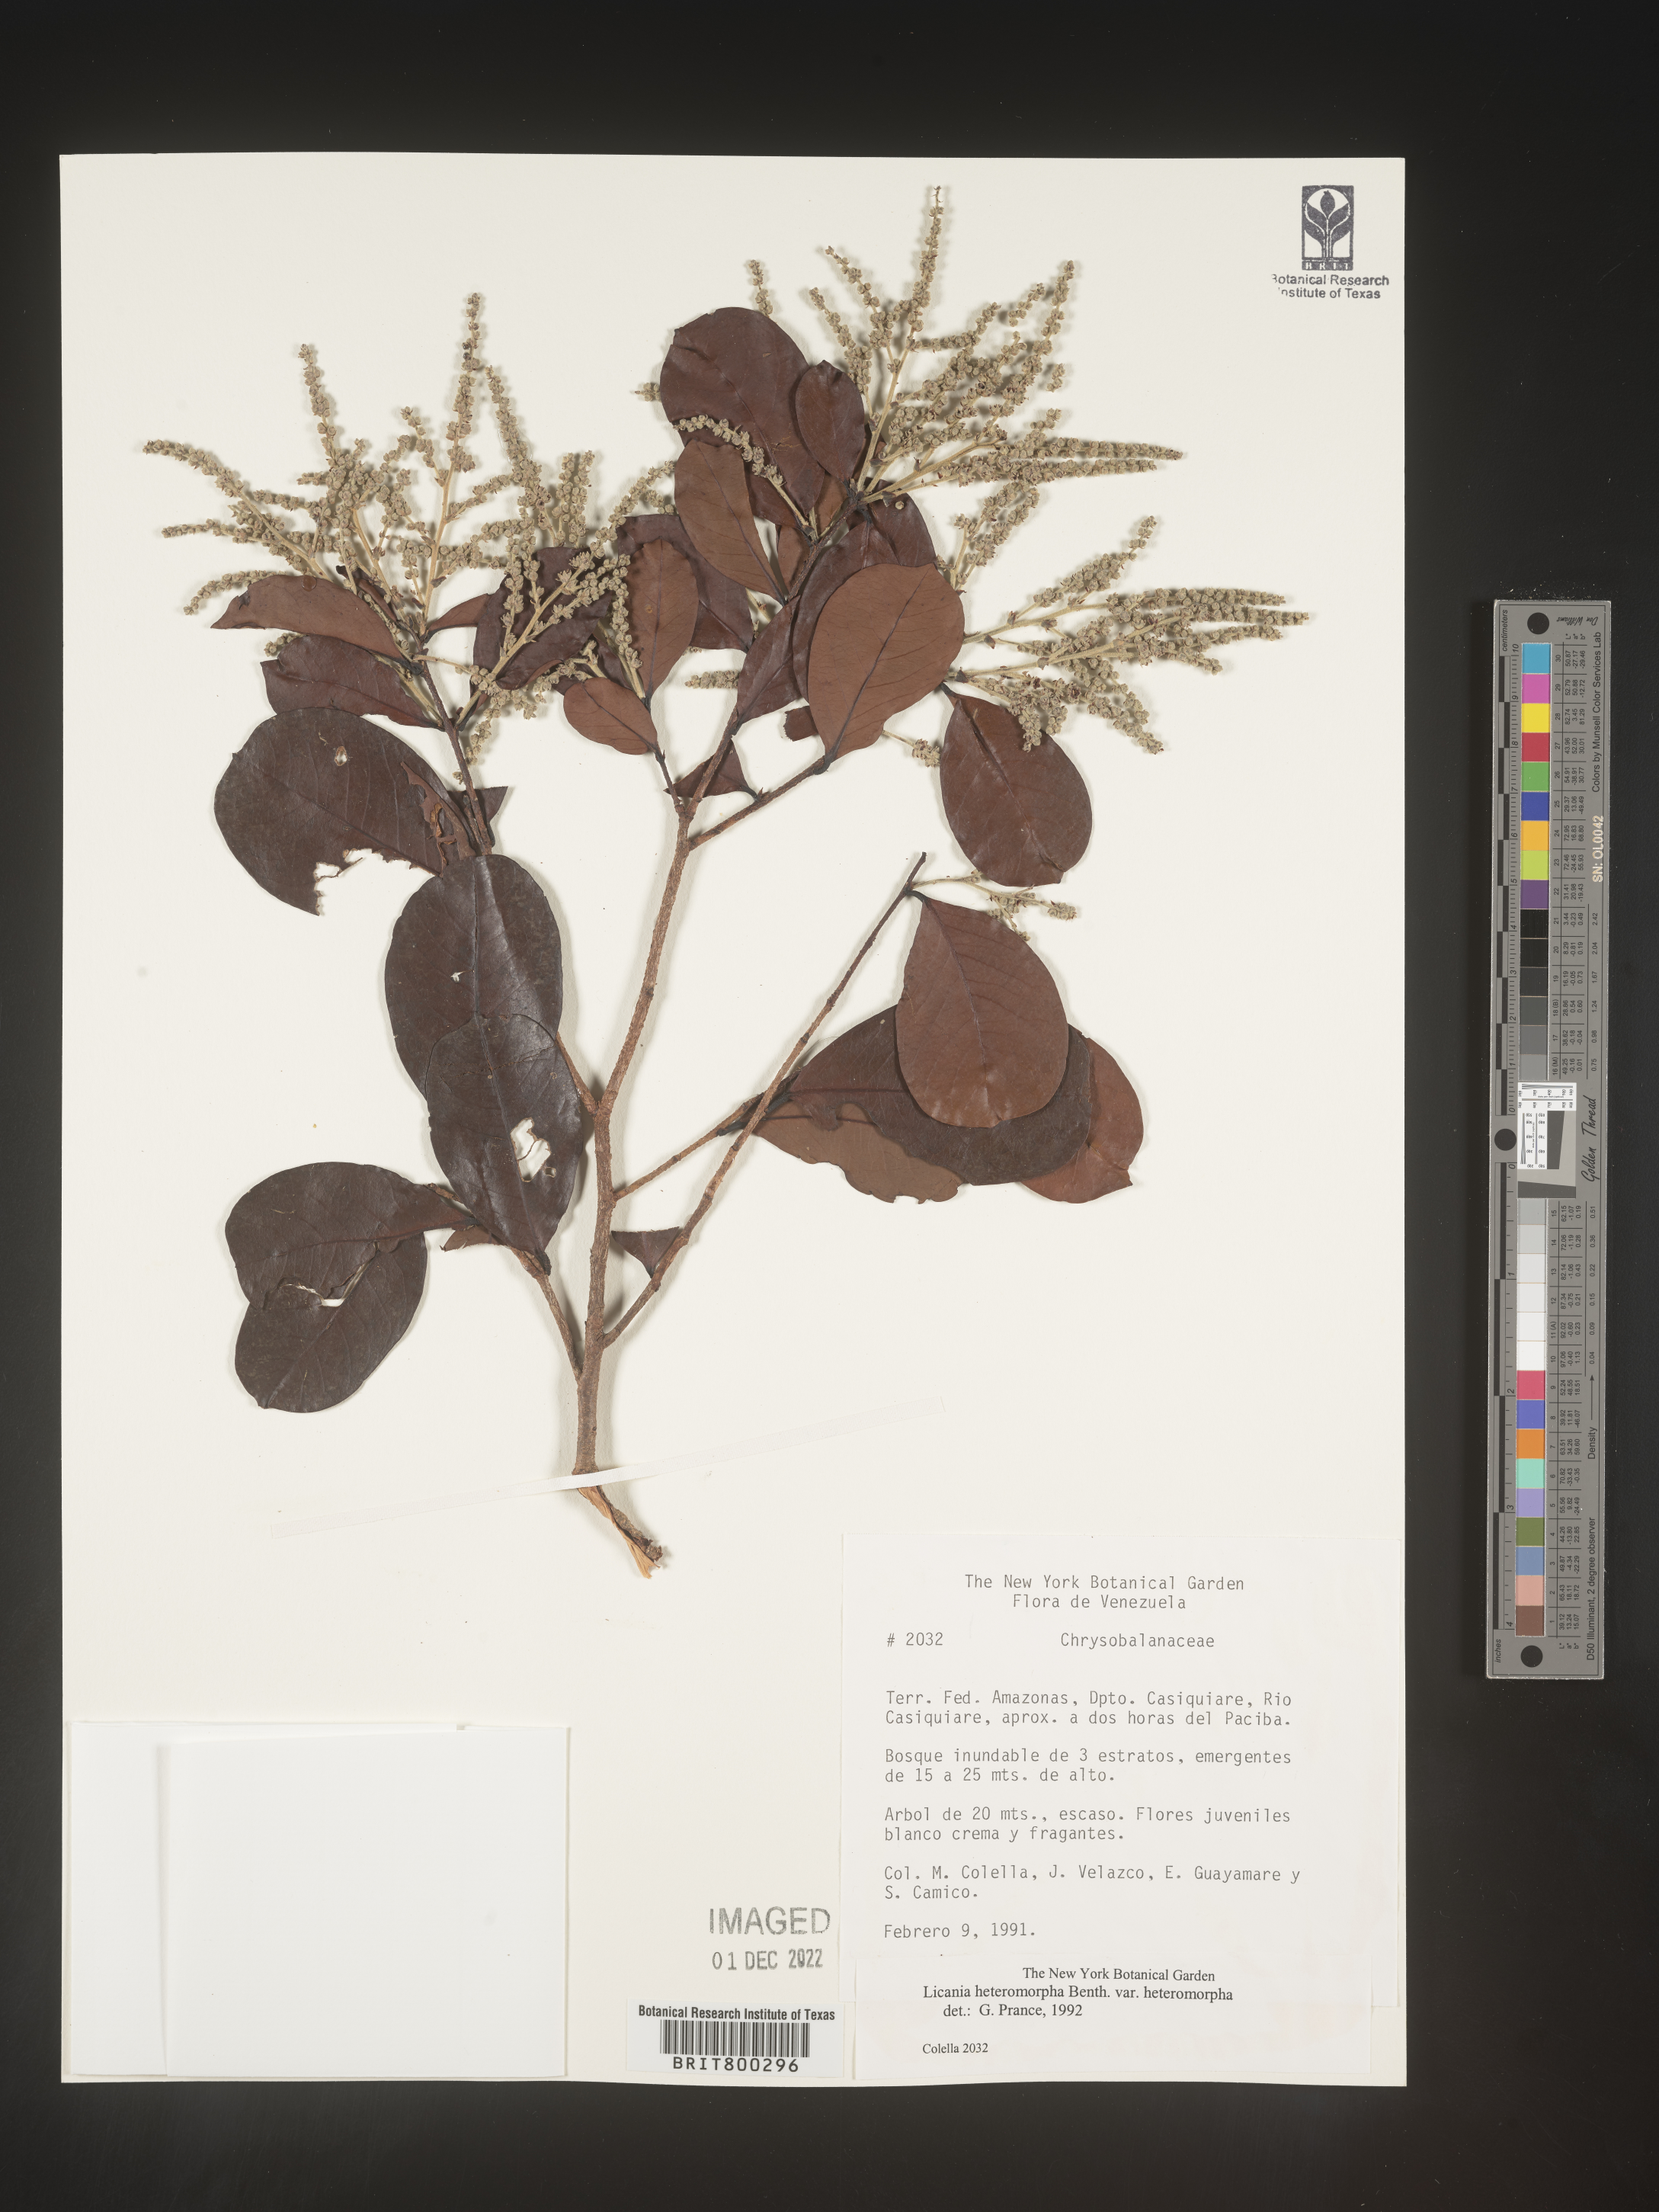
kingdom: Plantae
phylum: Tracheophyta
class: Magnoliopsida
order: Malpighiales
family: Chrysobalanaceae
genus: Geobalanus
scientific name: Geobalanus oblongifolius
